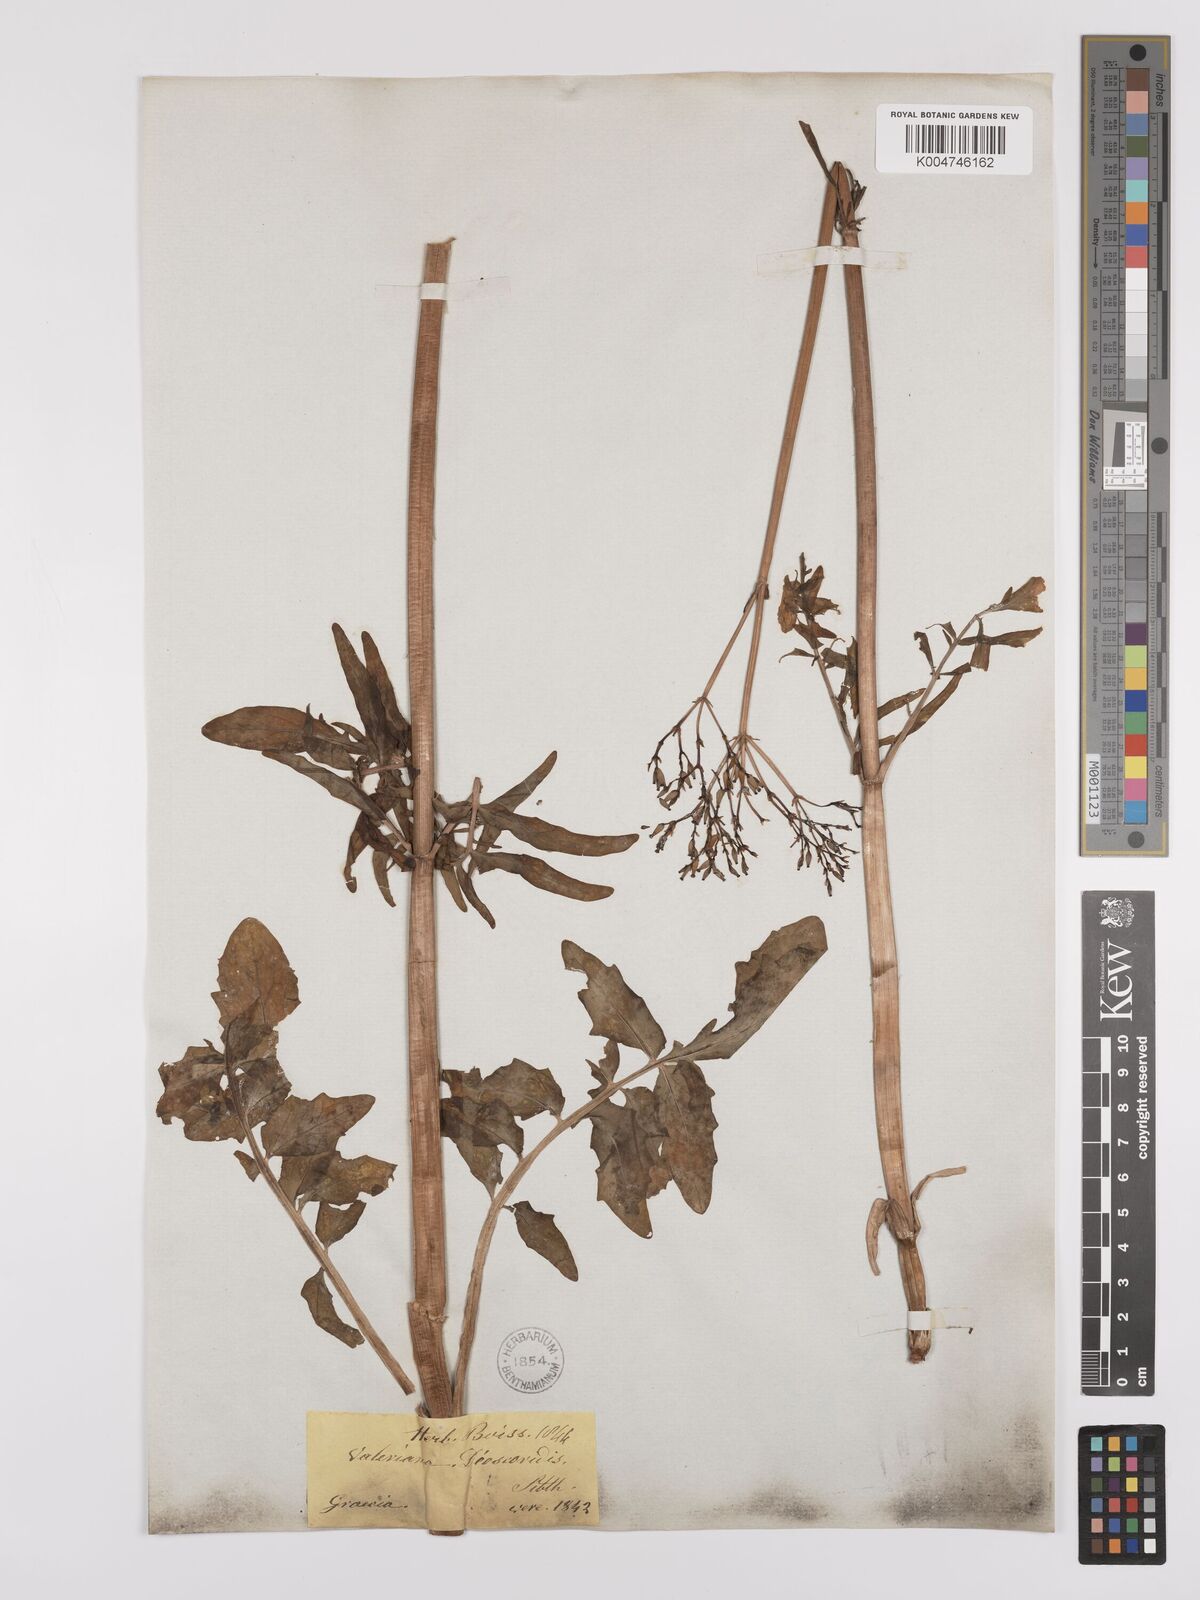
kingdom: Plantae
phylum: Tracheophyta
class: Magnoliopsida
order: Dipsacales
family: Caprifoliaceae
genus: Valeriana
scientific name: Valeriana dioscoridis
